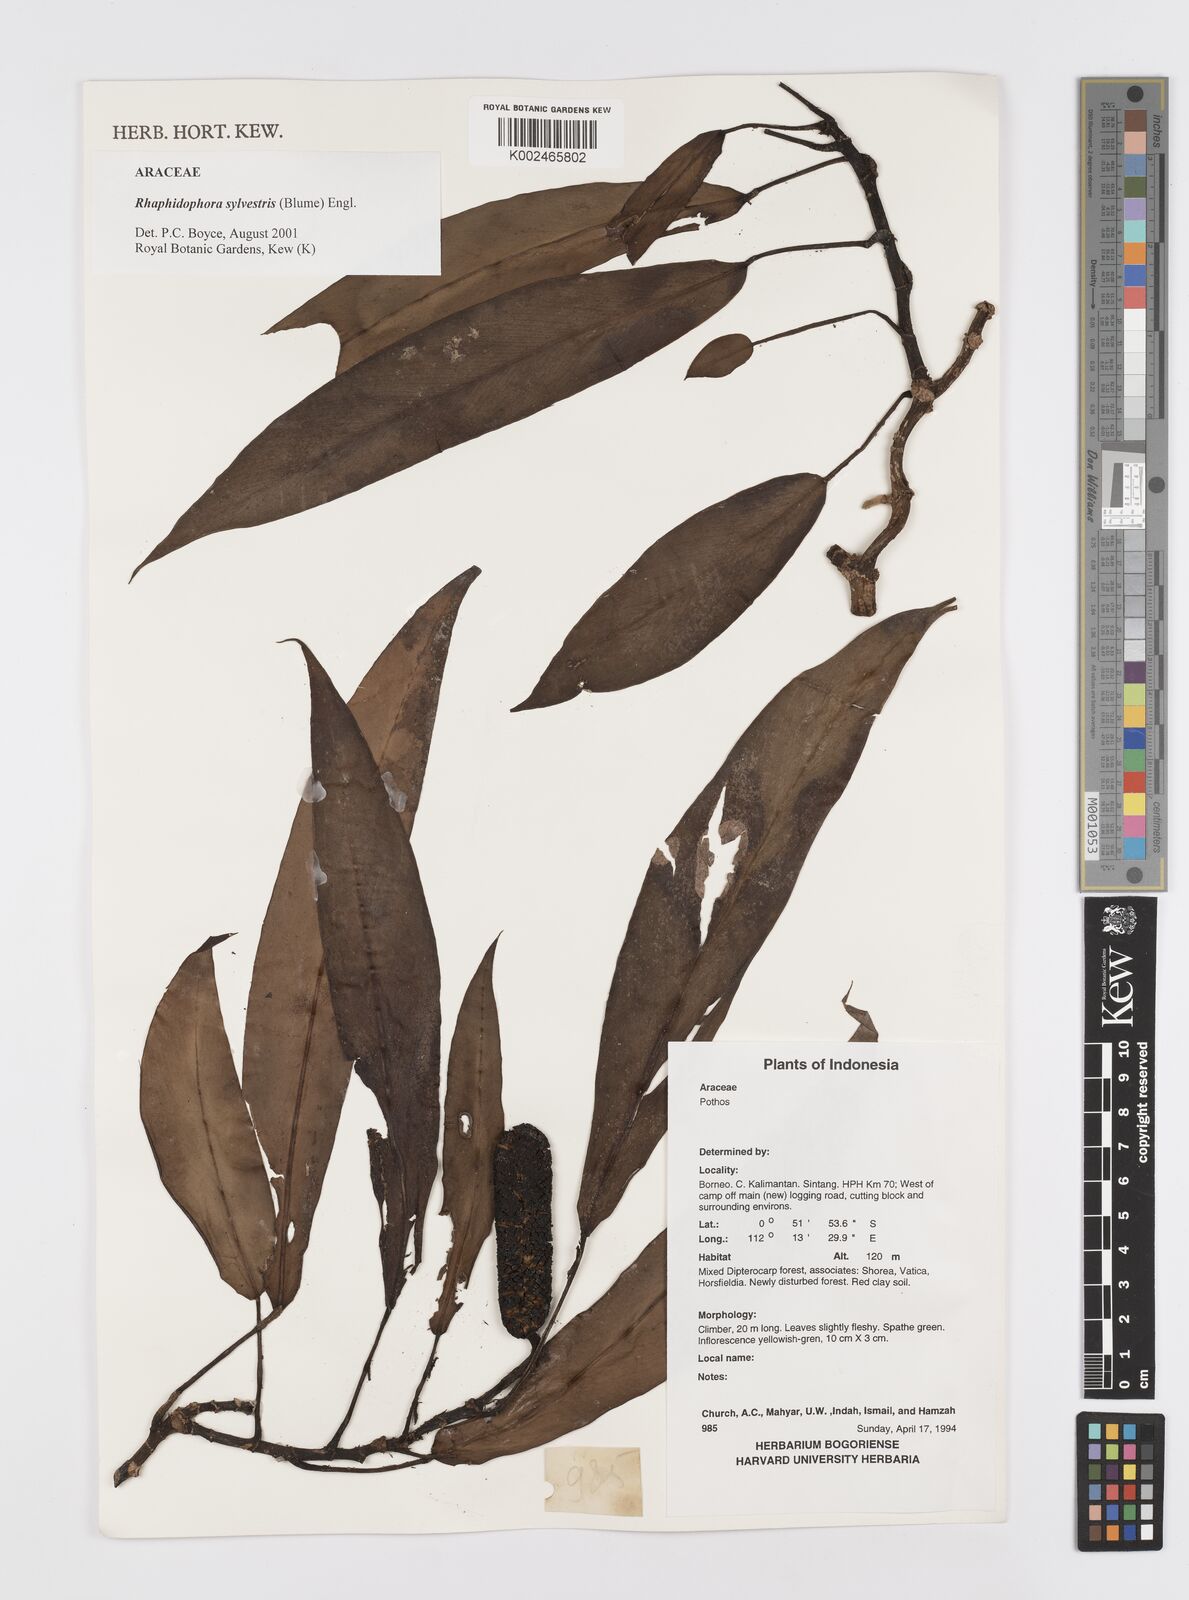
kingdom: Plantae
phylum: Tracheophyta
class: Liliopsida
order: Alismatales
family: Araceae
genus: Rhaphidophora
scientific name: Rhaphidophora sylvestris
